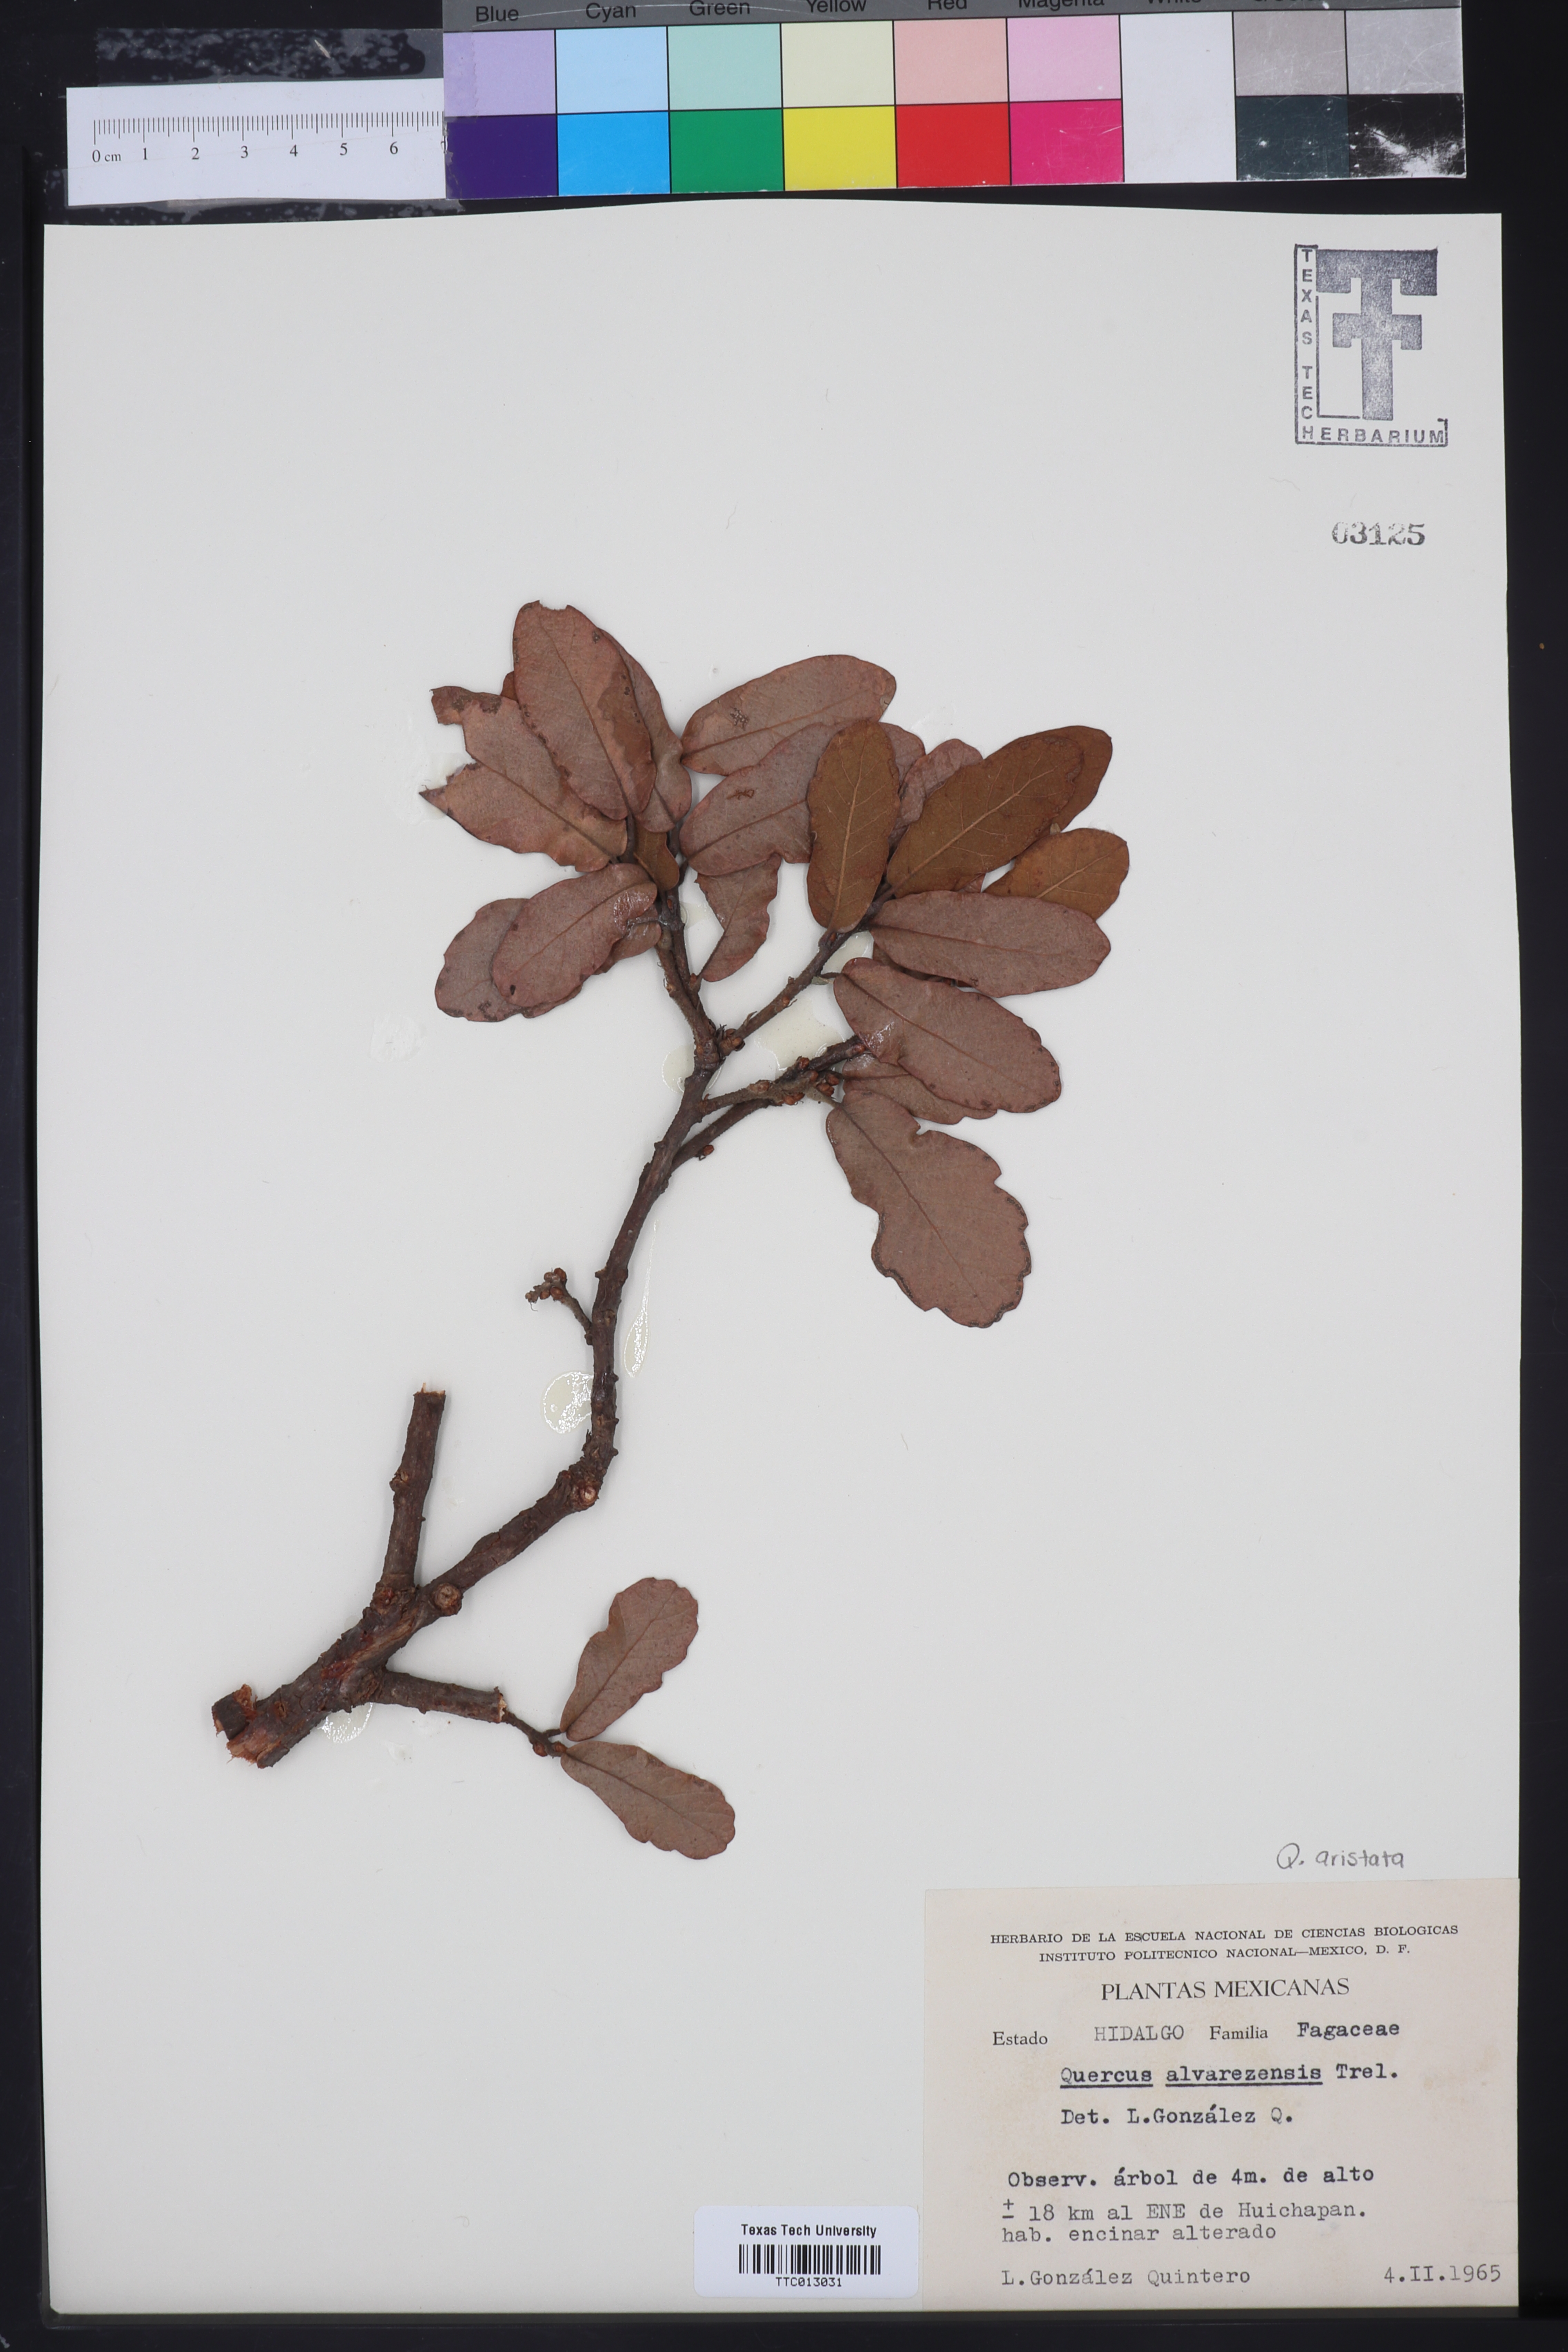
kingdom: Plantae
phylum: Tracheophyta
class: Magnoliopsida
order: Fagales
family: Fagaceae
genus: Quercus
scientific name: Quercus obtusata
